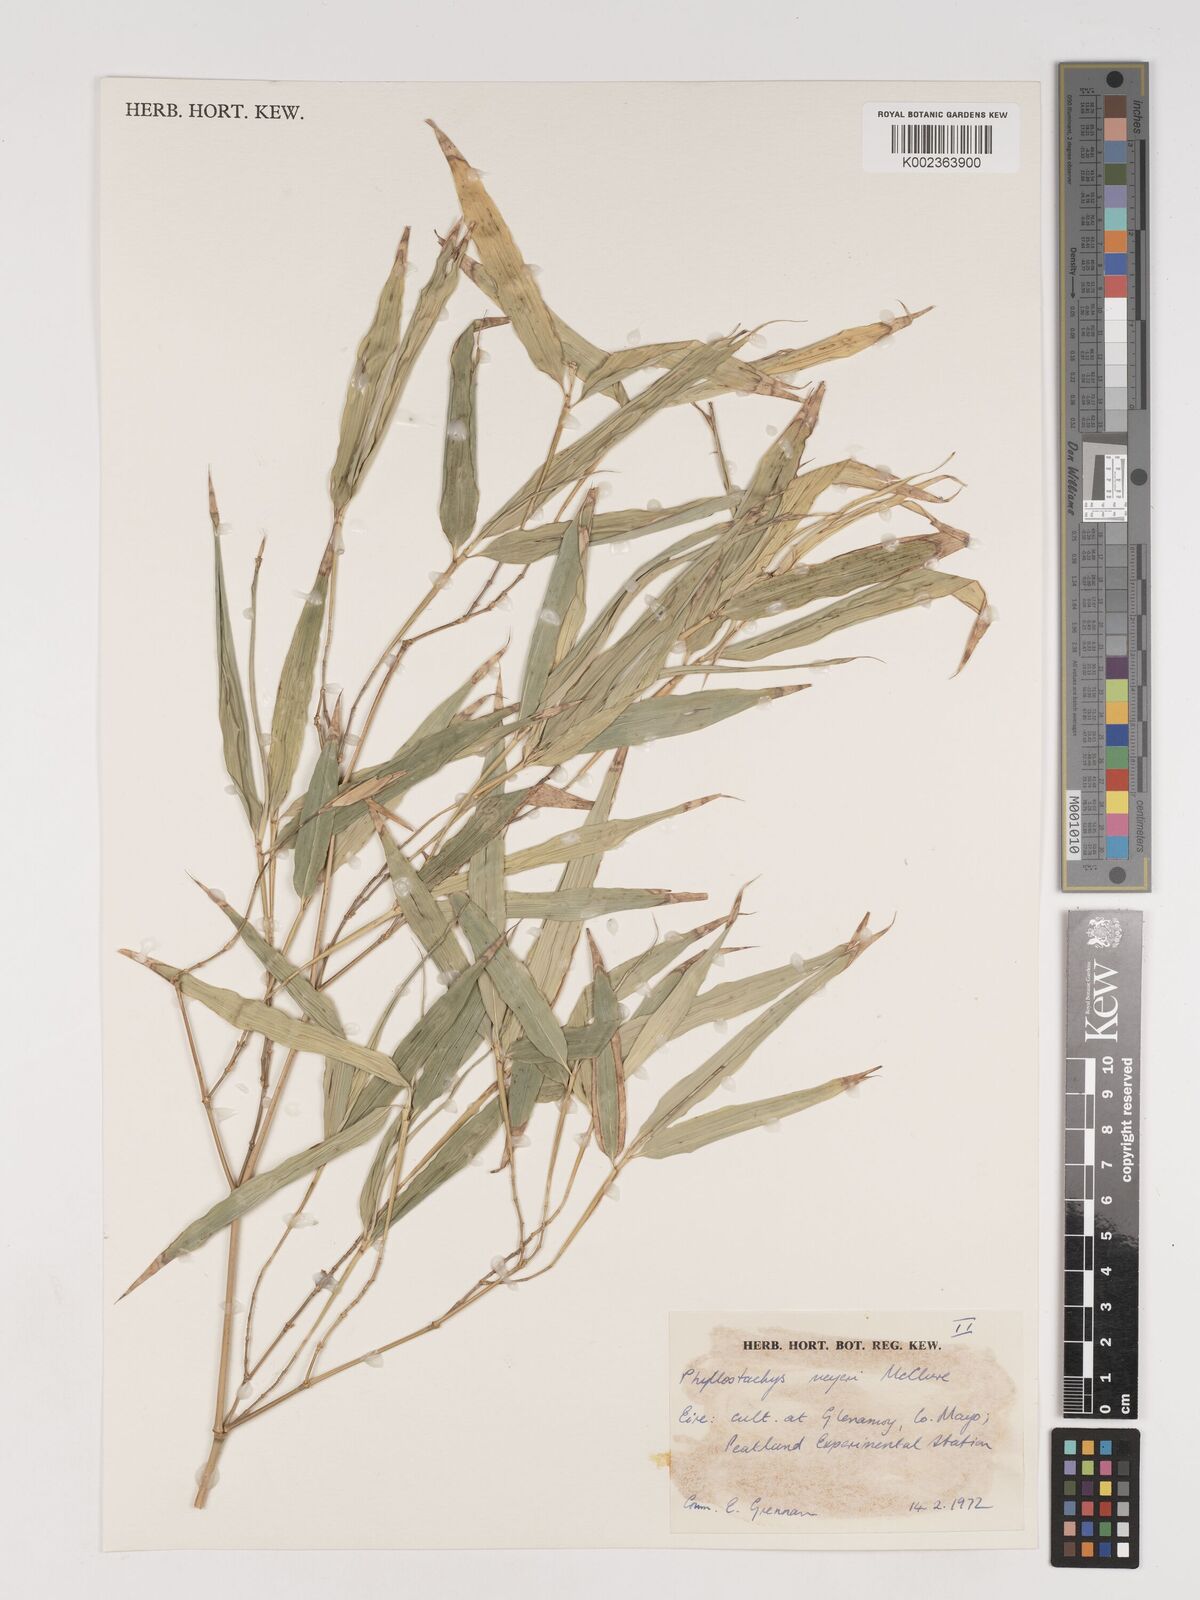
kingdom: Plantae
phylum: Tracheophyta
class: Liliopsida
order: Poales
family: Poaceae
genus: Phyllostachys
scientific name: Phyllostachys meyeri
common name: Meyer's bamboo
